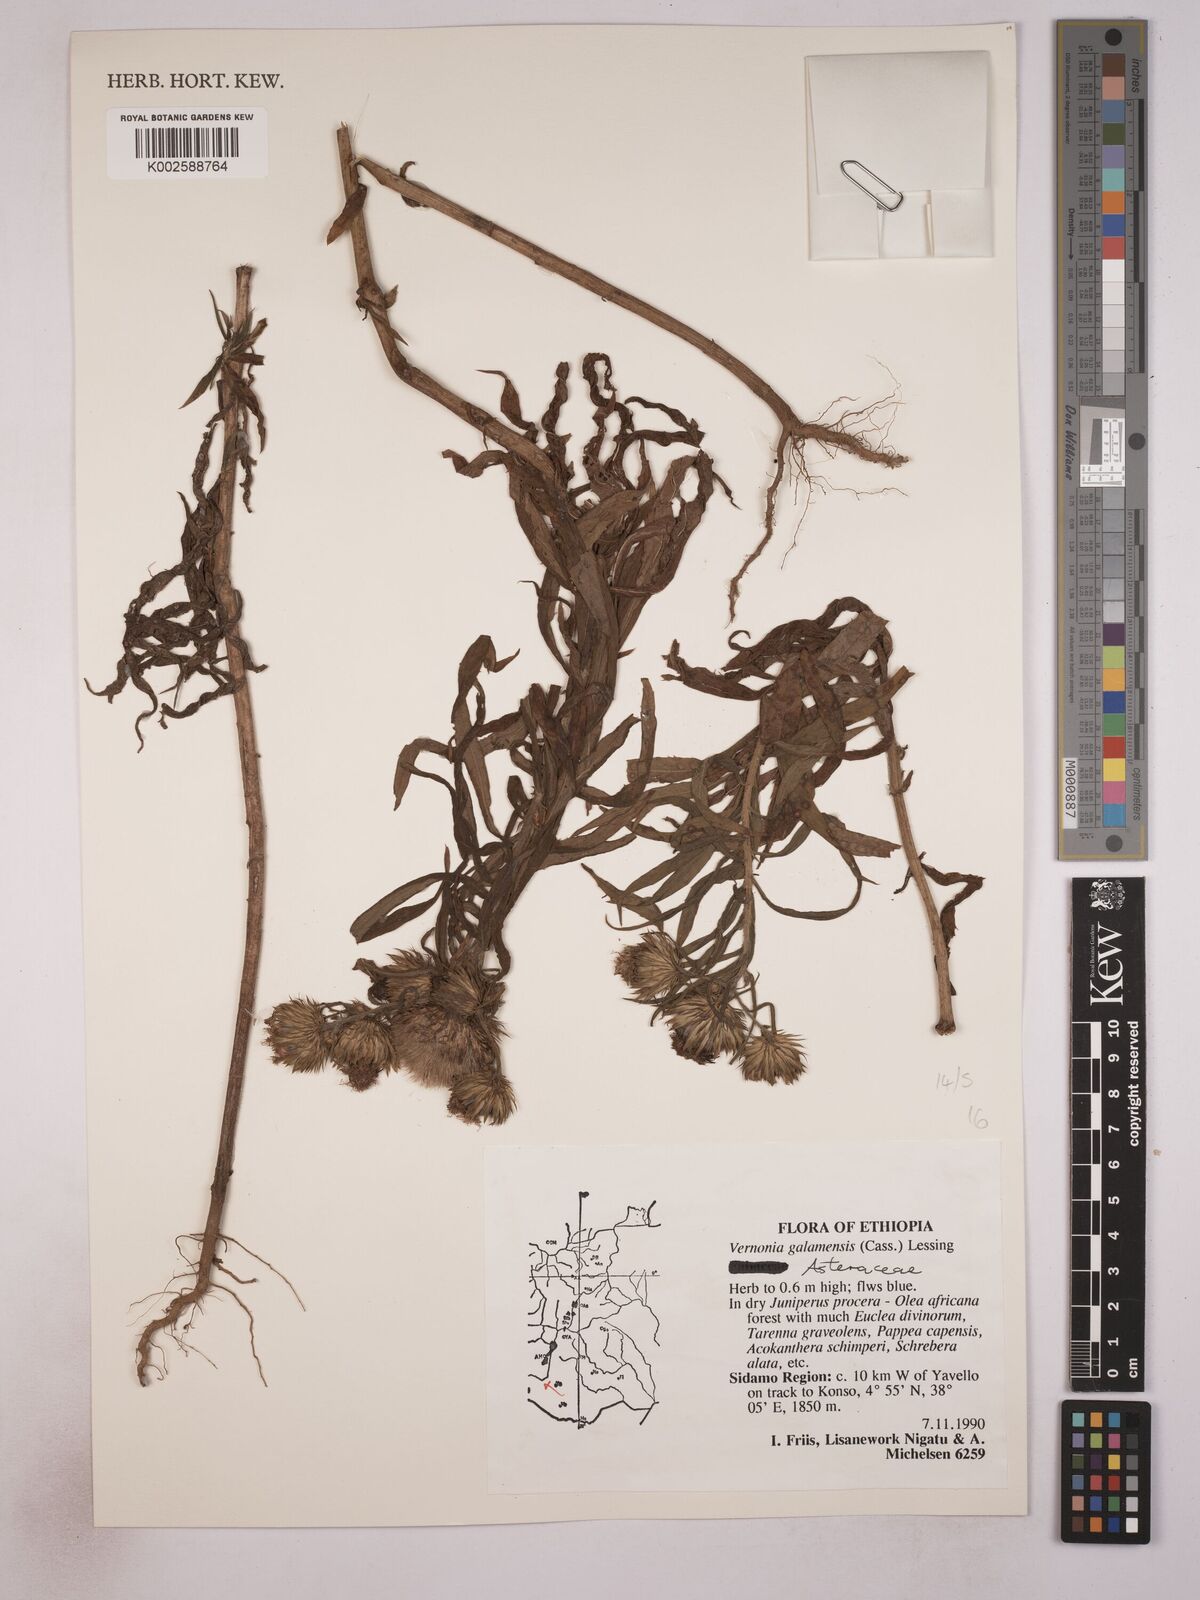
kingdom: Plantae
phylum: Tracheophyta
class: Magnoliopsida
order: Asterales
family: Asteraceae
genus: Vernonia
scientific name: Vernonia galamensis
